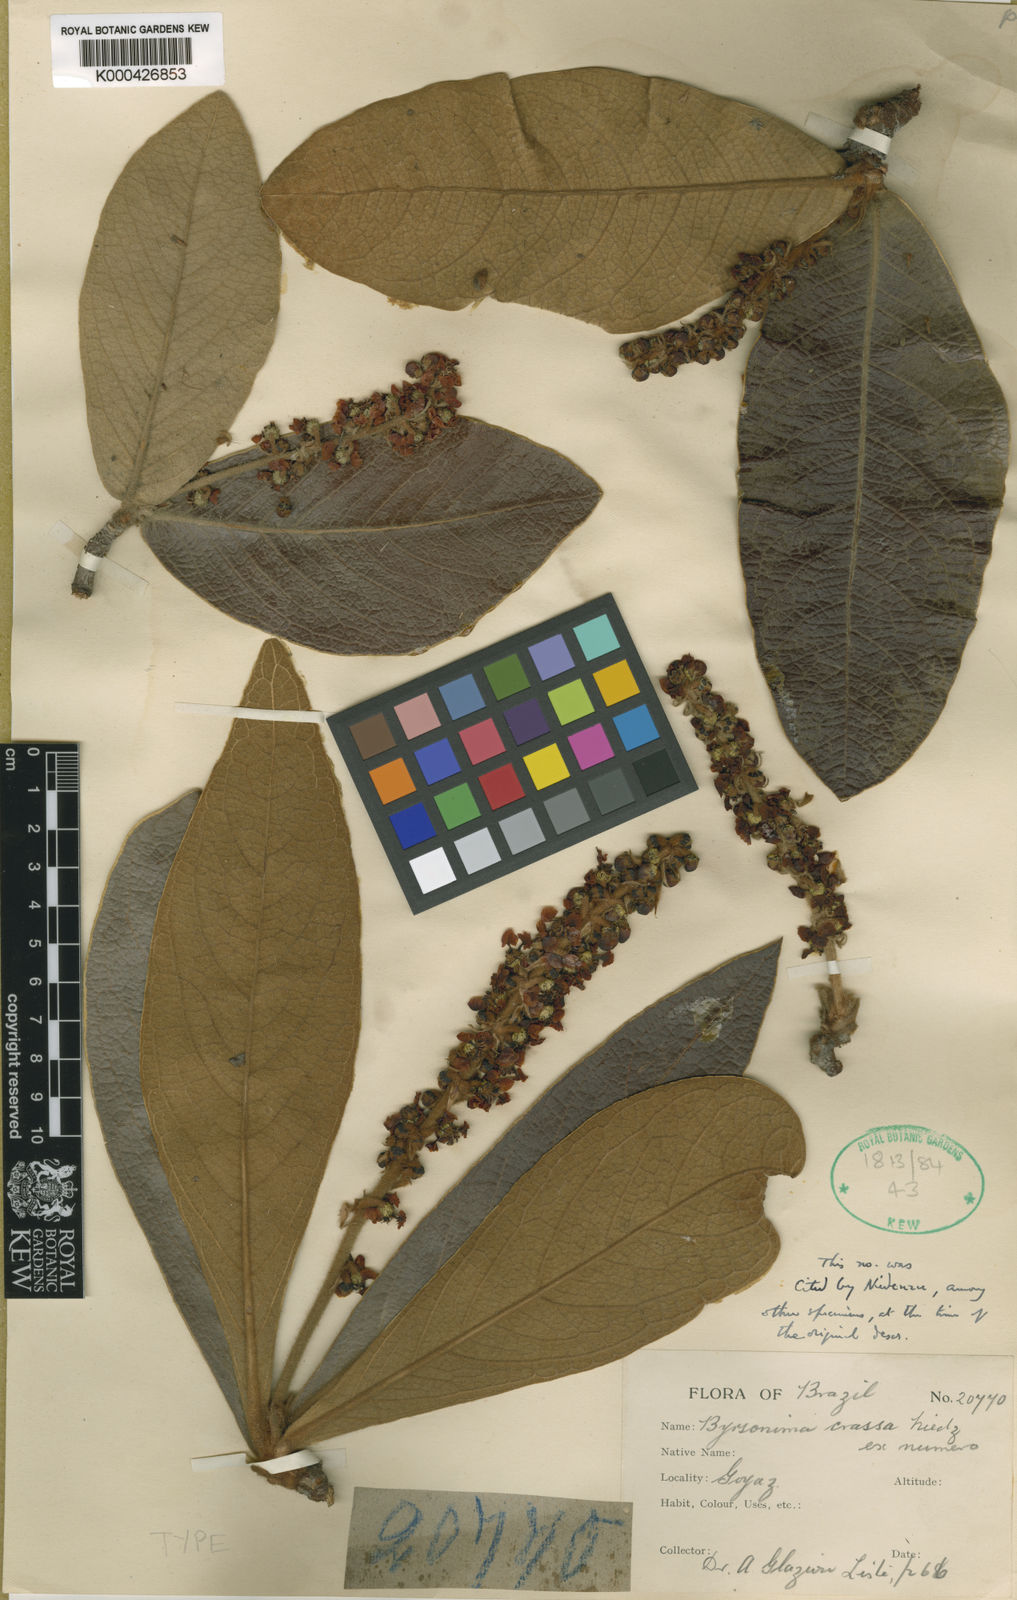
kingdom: Plantae
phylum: Tracheophyta
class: Magnoliopsida
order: Malpighiales
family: Malpighiaceae
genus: Byrsonima
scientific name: Byrsonima pachyphylla
